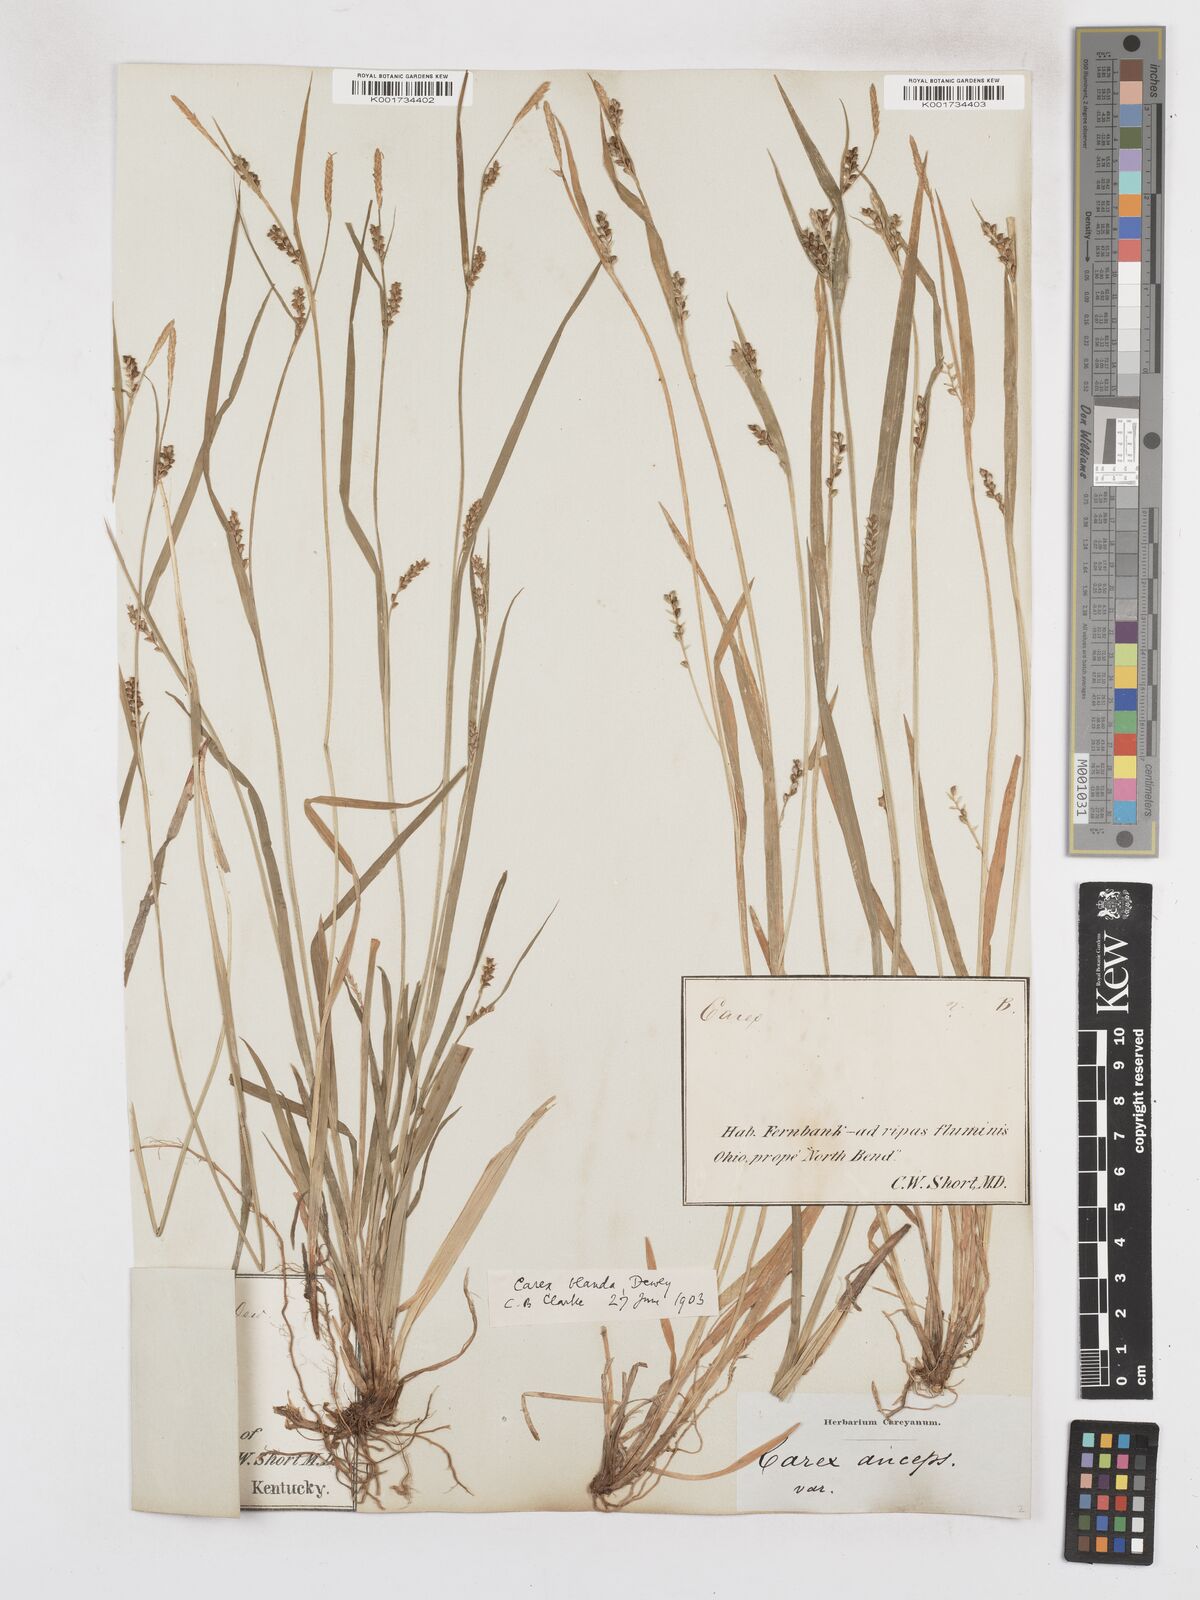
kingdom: Plantae
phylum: Tracheophyta
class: Liliopsida
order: Poales
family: Cyperaceae
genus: Carex
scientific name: Carex blanda
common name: Bland sedge
